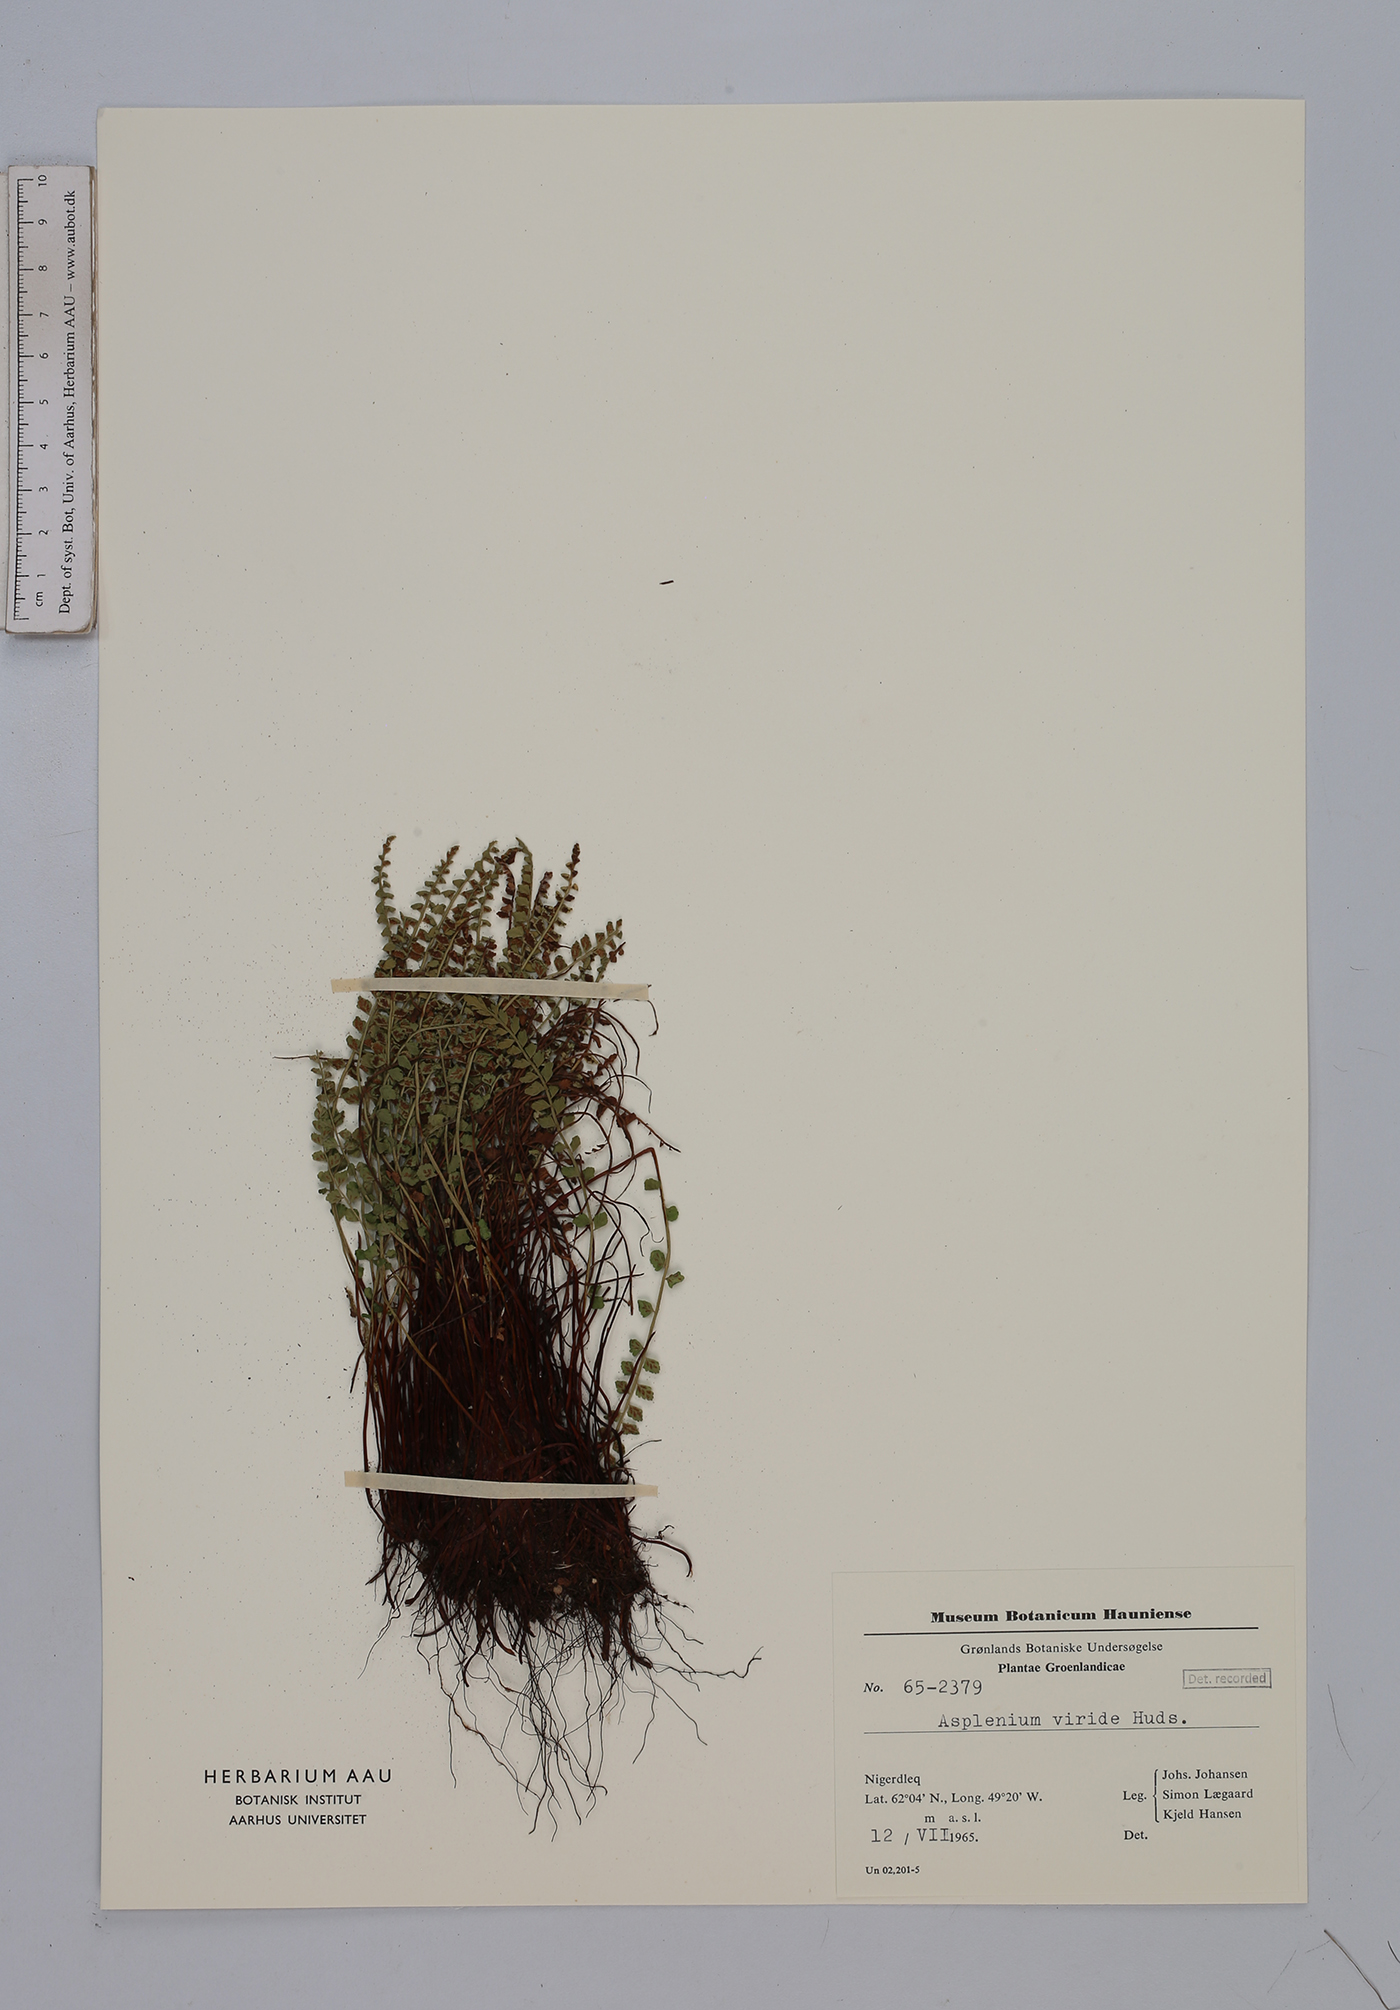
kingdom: Plantae
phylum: Tracheophyta
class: Polypodiopsida
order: Polypodiales
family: Aspleniaceae
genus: Asplenium
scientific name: Asplenium viride
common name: Green spleenwort
